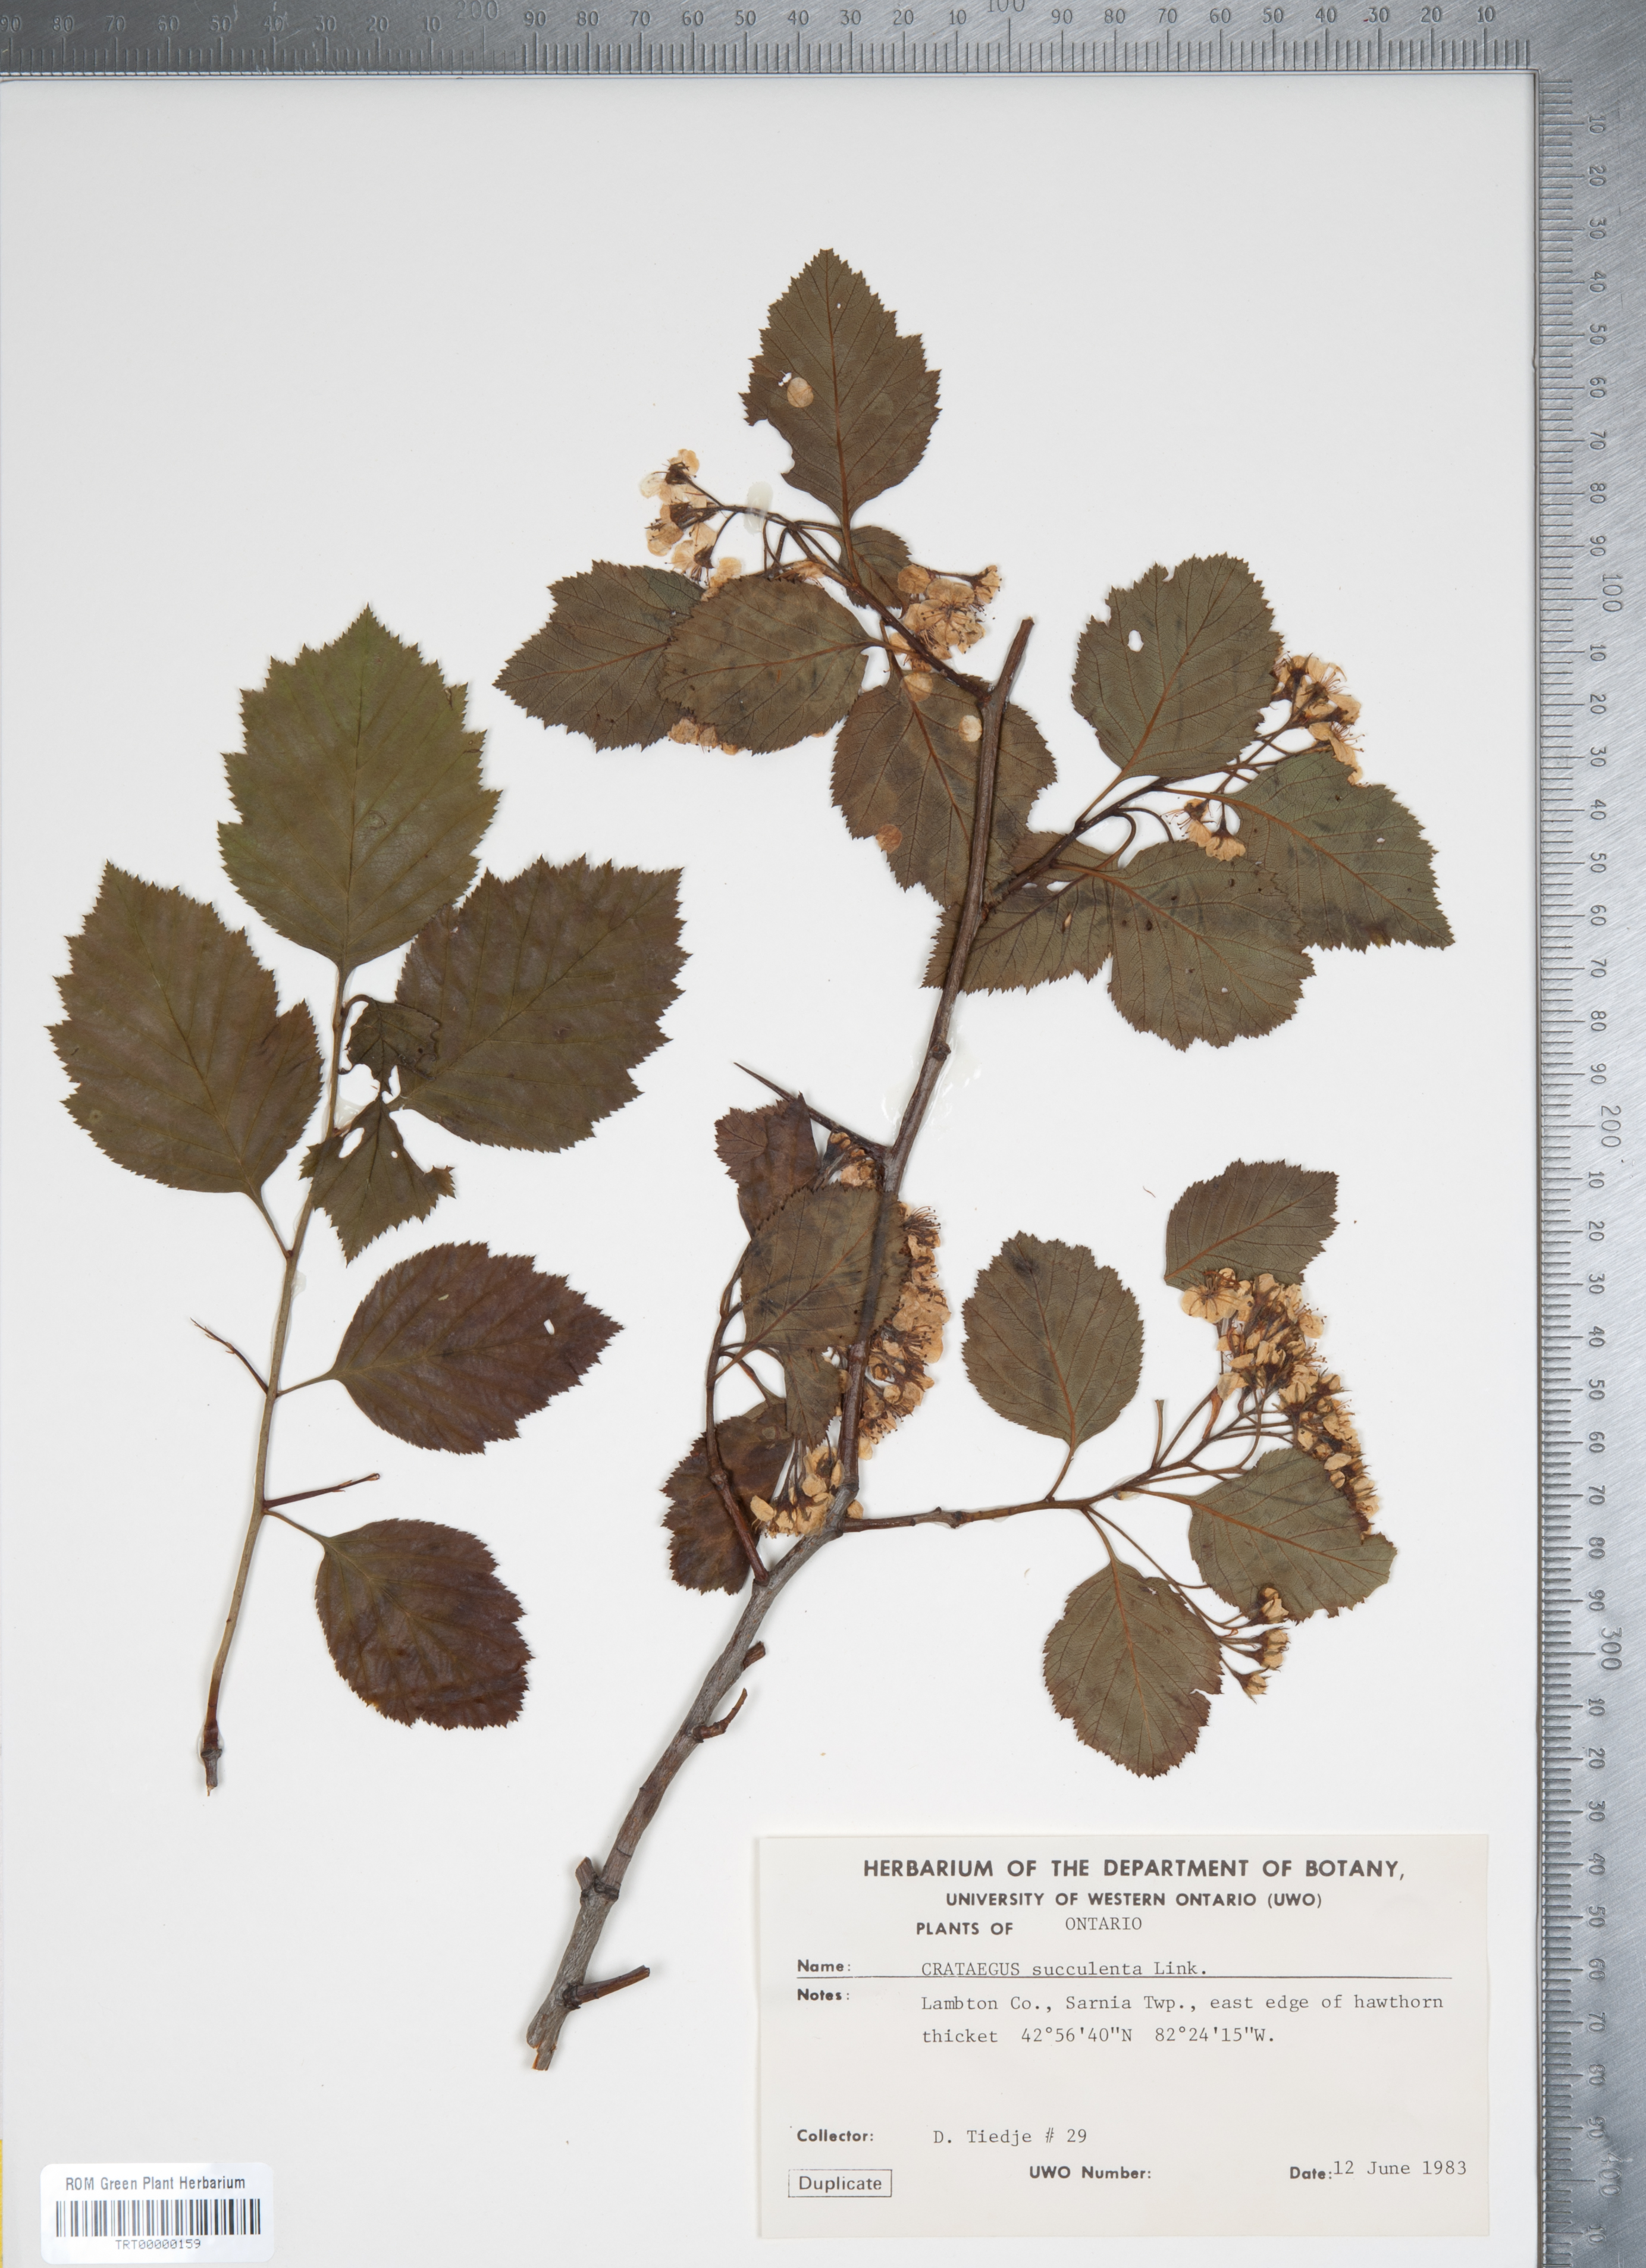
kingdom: Plantae
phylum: Tracheophyta
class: Magnoliopsida
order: Rosales
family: Rosaceae
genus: Crataegus
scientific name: Crataegus succulenta
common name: Fleshy hawthorn
